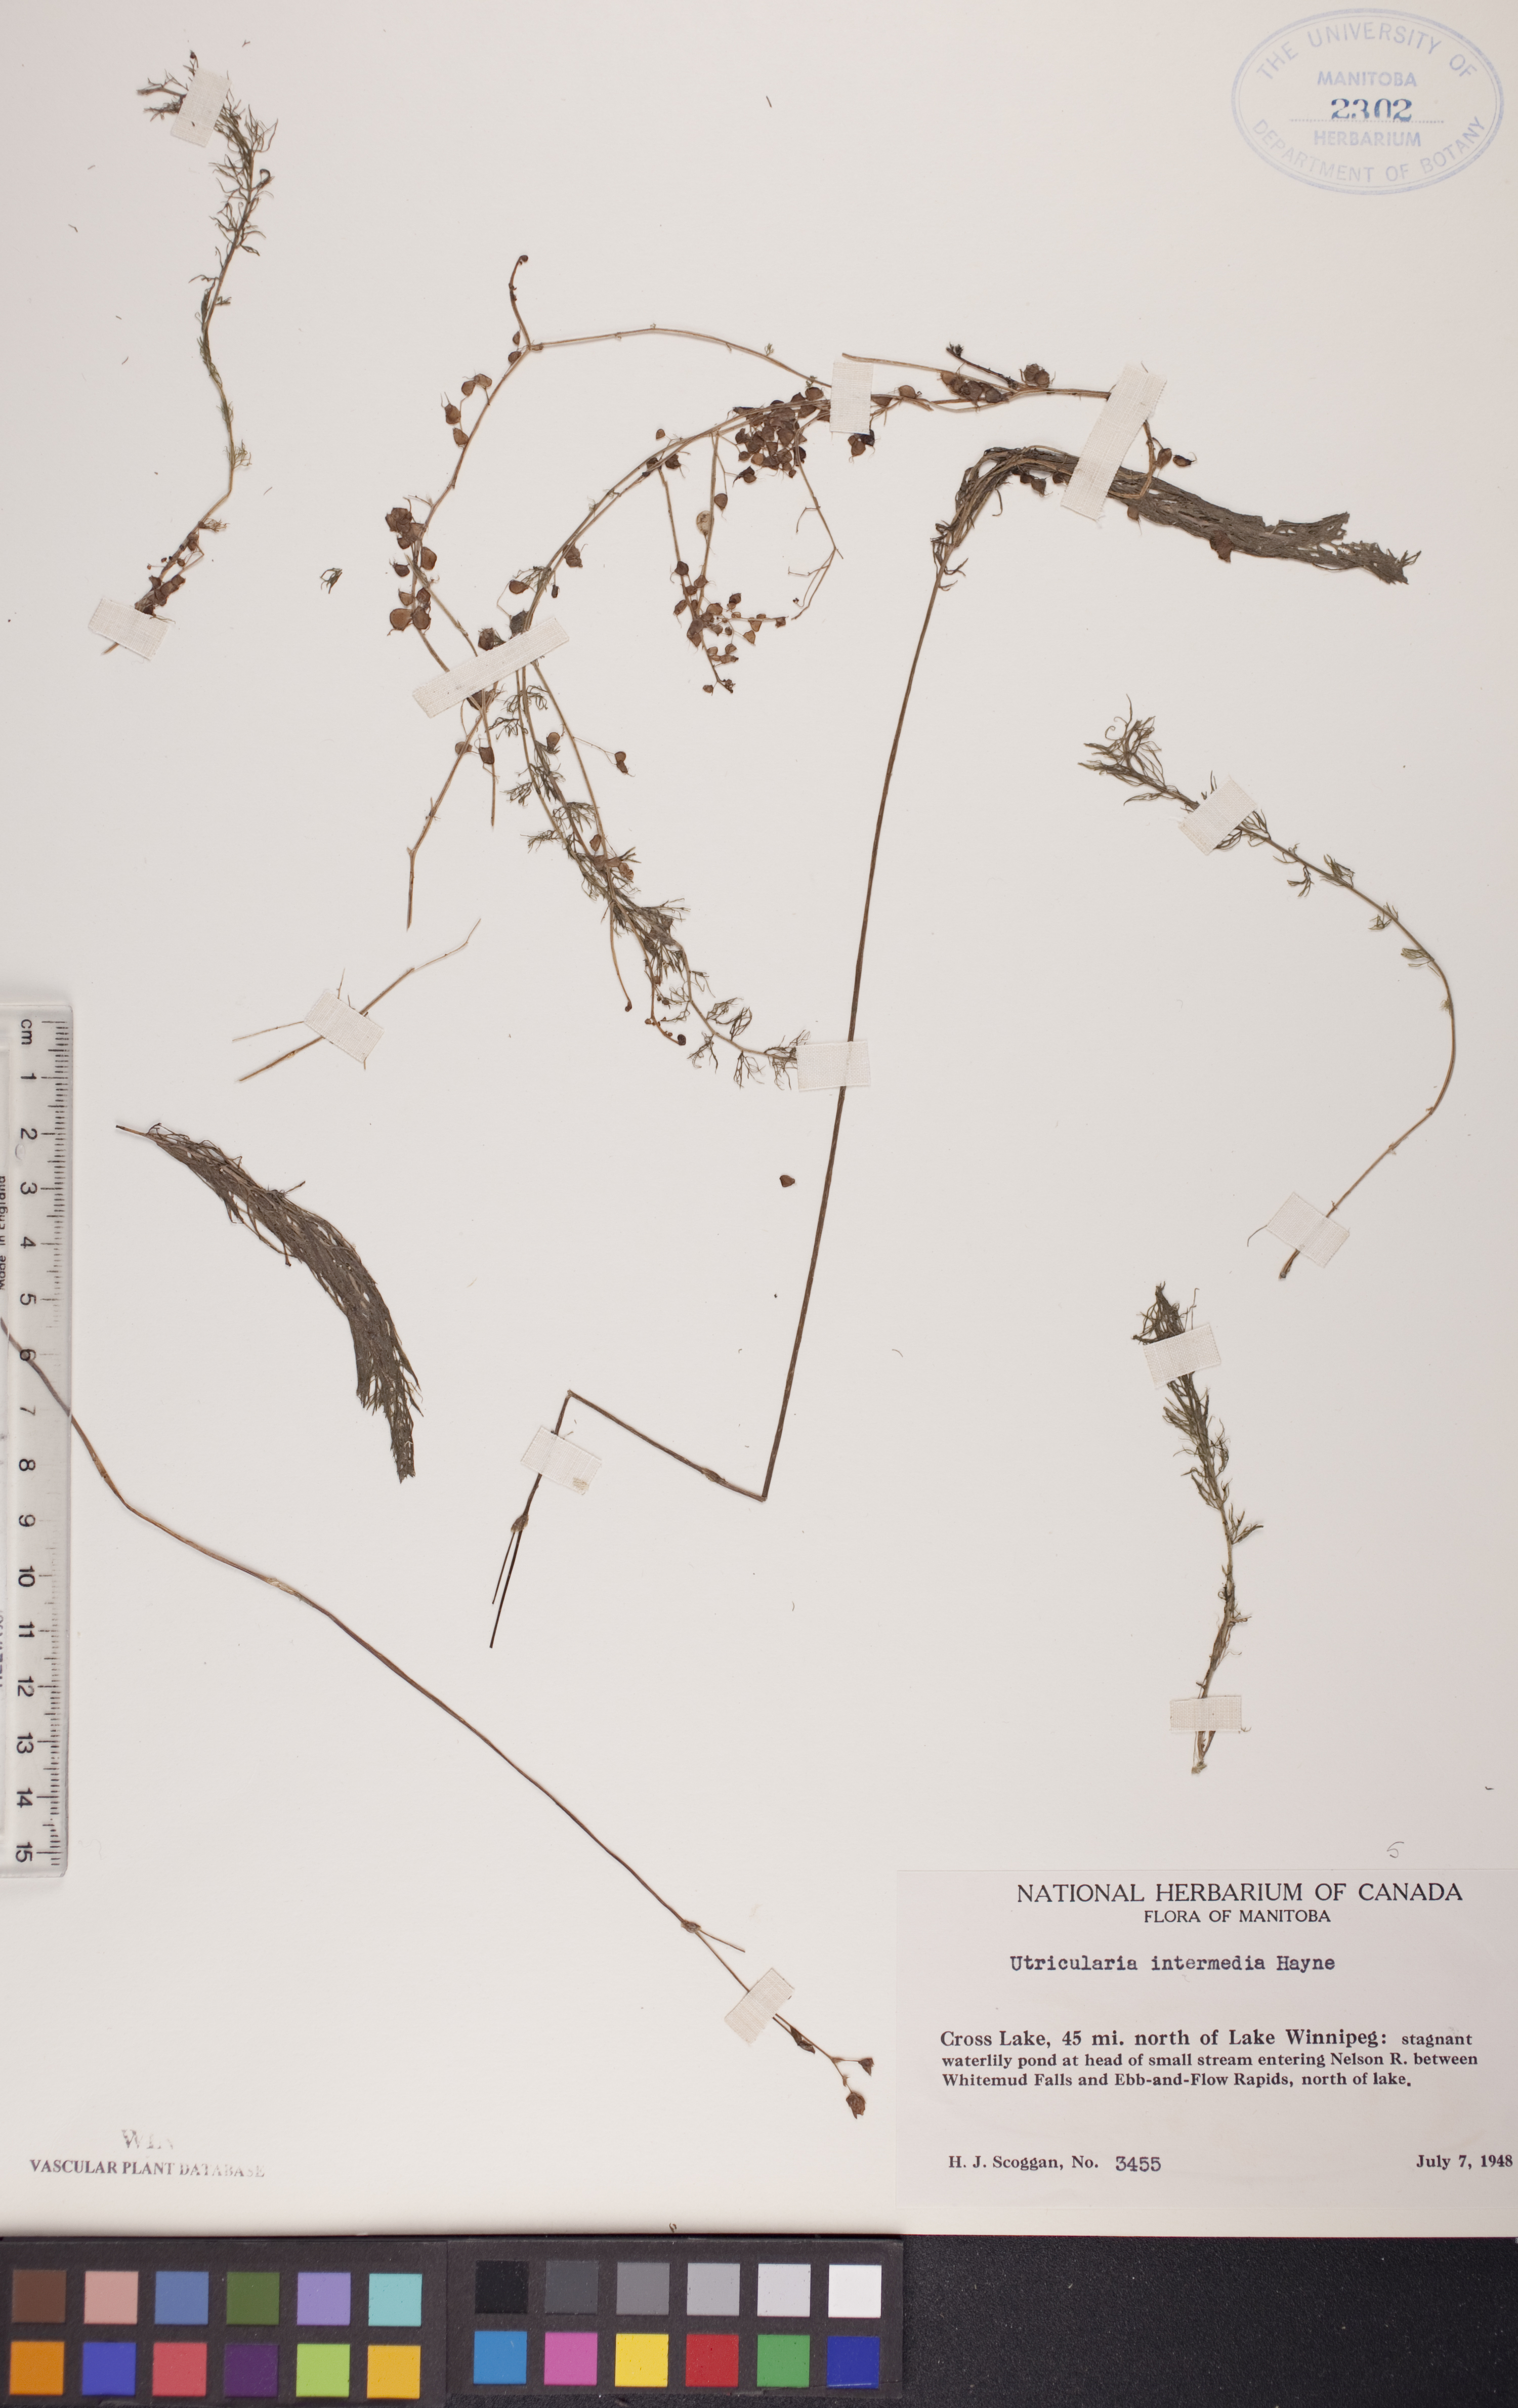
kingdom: Plantae
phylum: Tracheophyta
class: Magnoliopsida
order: Lamiales
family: Lentibulariaceae
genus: Utricularia
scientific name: Utricularia intermedia
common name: Intermediate bladderwort
